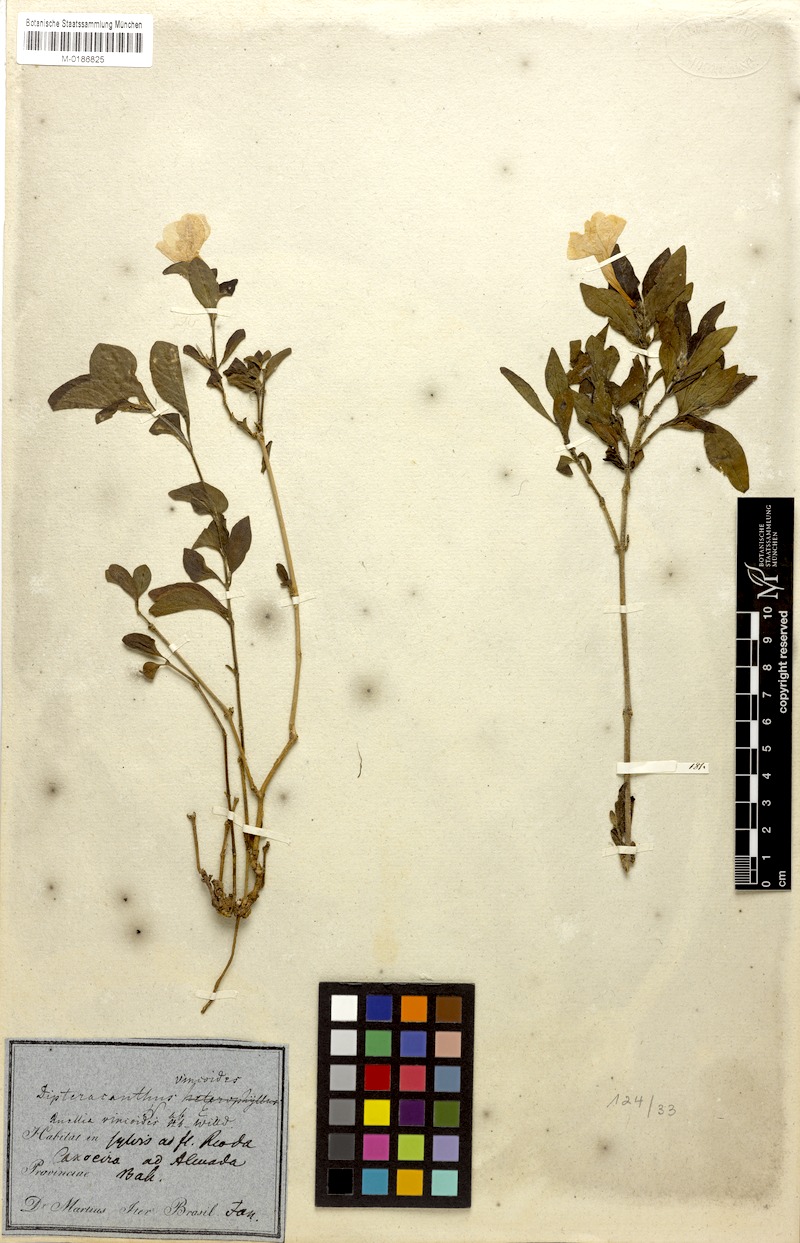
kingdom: Plantae
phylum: Tracheophyta
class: Magnoliopsida
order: Lamiales
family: Acanthaceae
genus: Ruellia
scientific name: Ruellia vincoides
